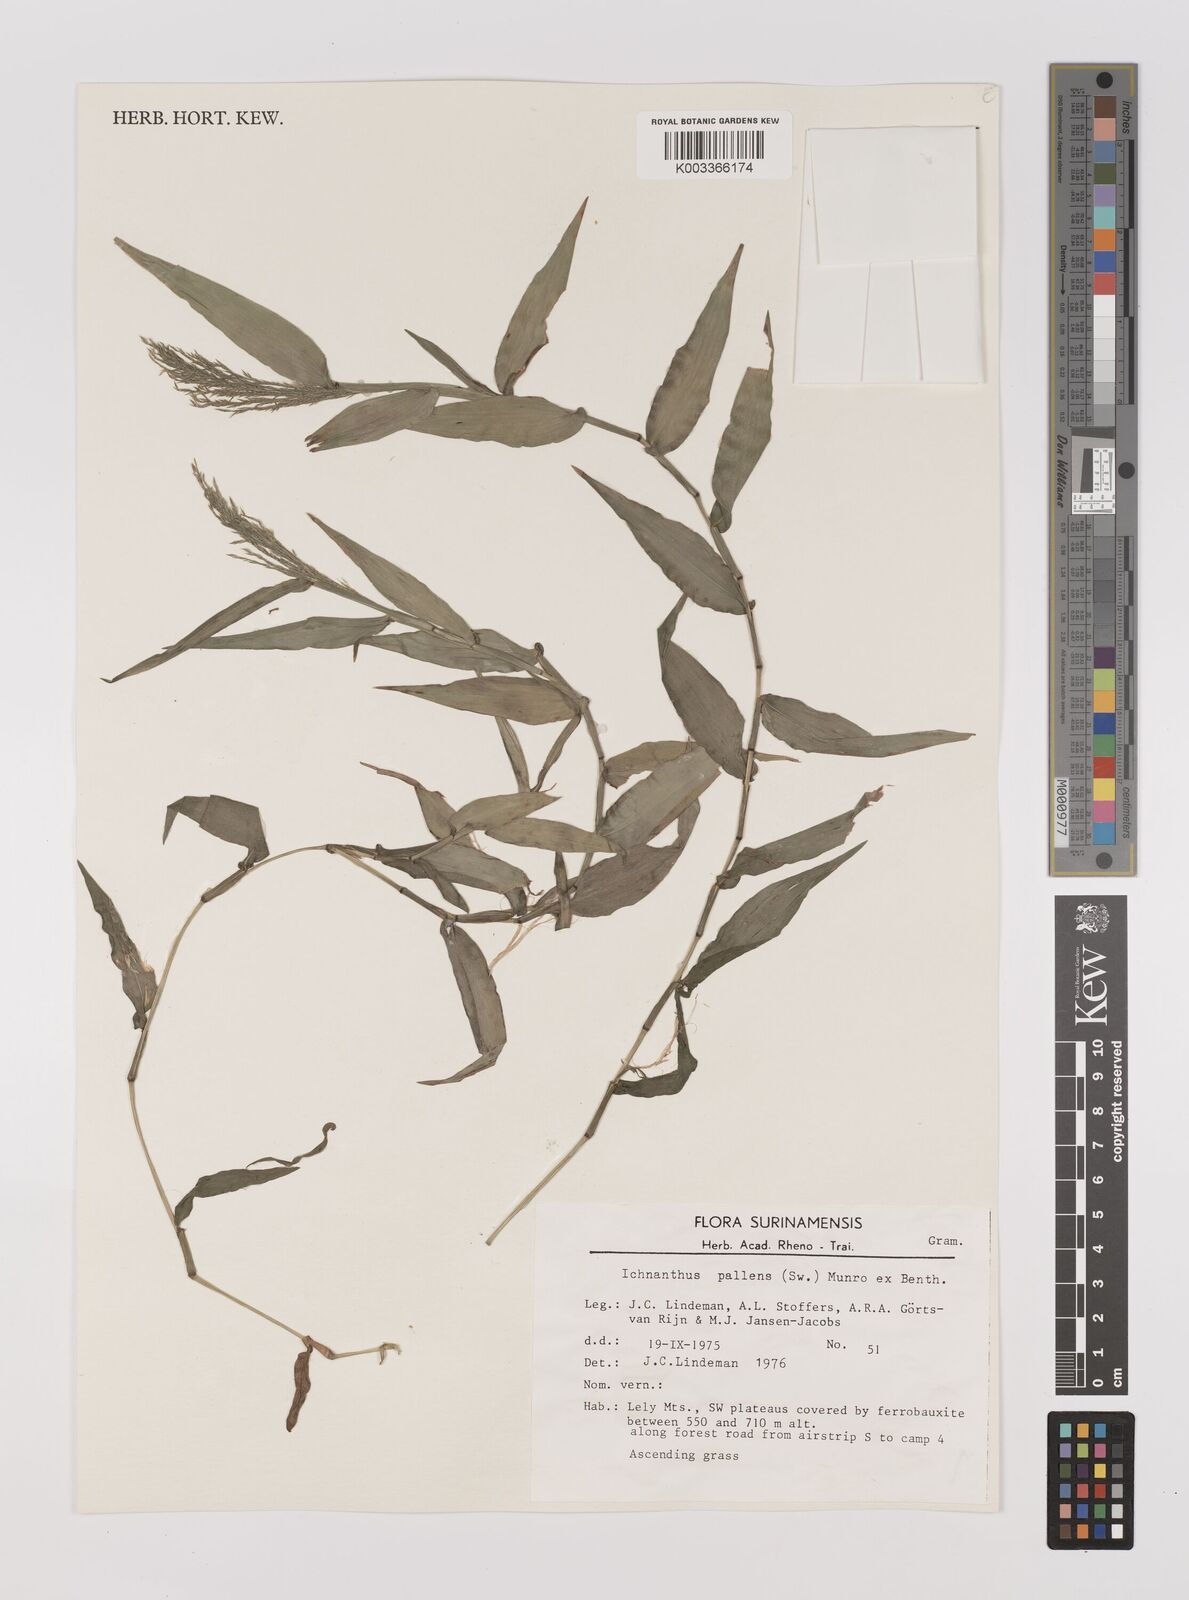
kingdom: Plantae
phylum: Tracheophyta
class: Liliopsida
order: Poales
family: Poaceae
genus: Ichnanthus
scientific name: Ichnanthus pallens
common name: Water grass
